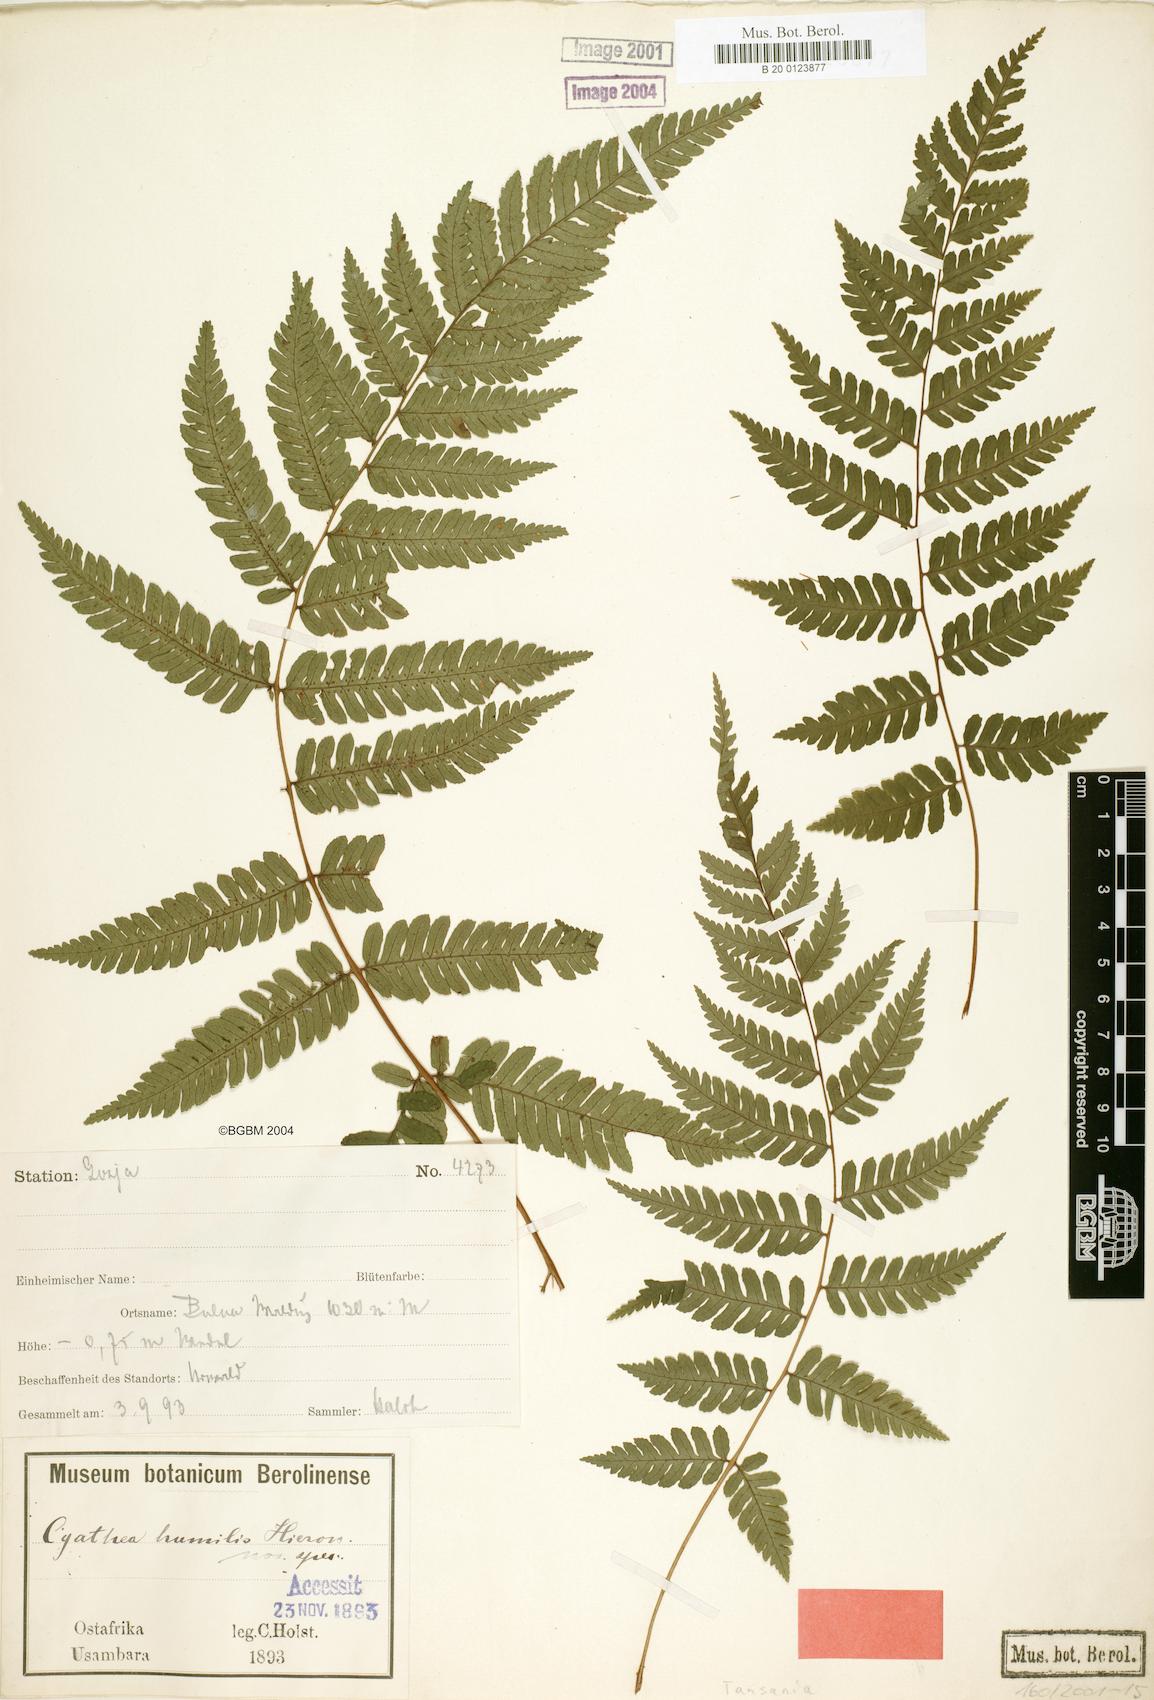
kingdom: Plantae
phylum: Tracheophyta
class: Polypodiopsida
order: Cyatheales
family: Cyatheaceae
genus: Alsophila
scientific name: Alsophila humilis
